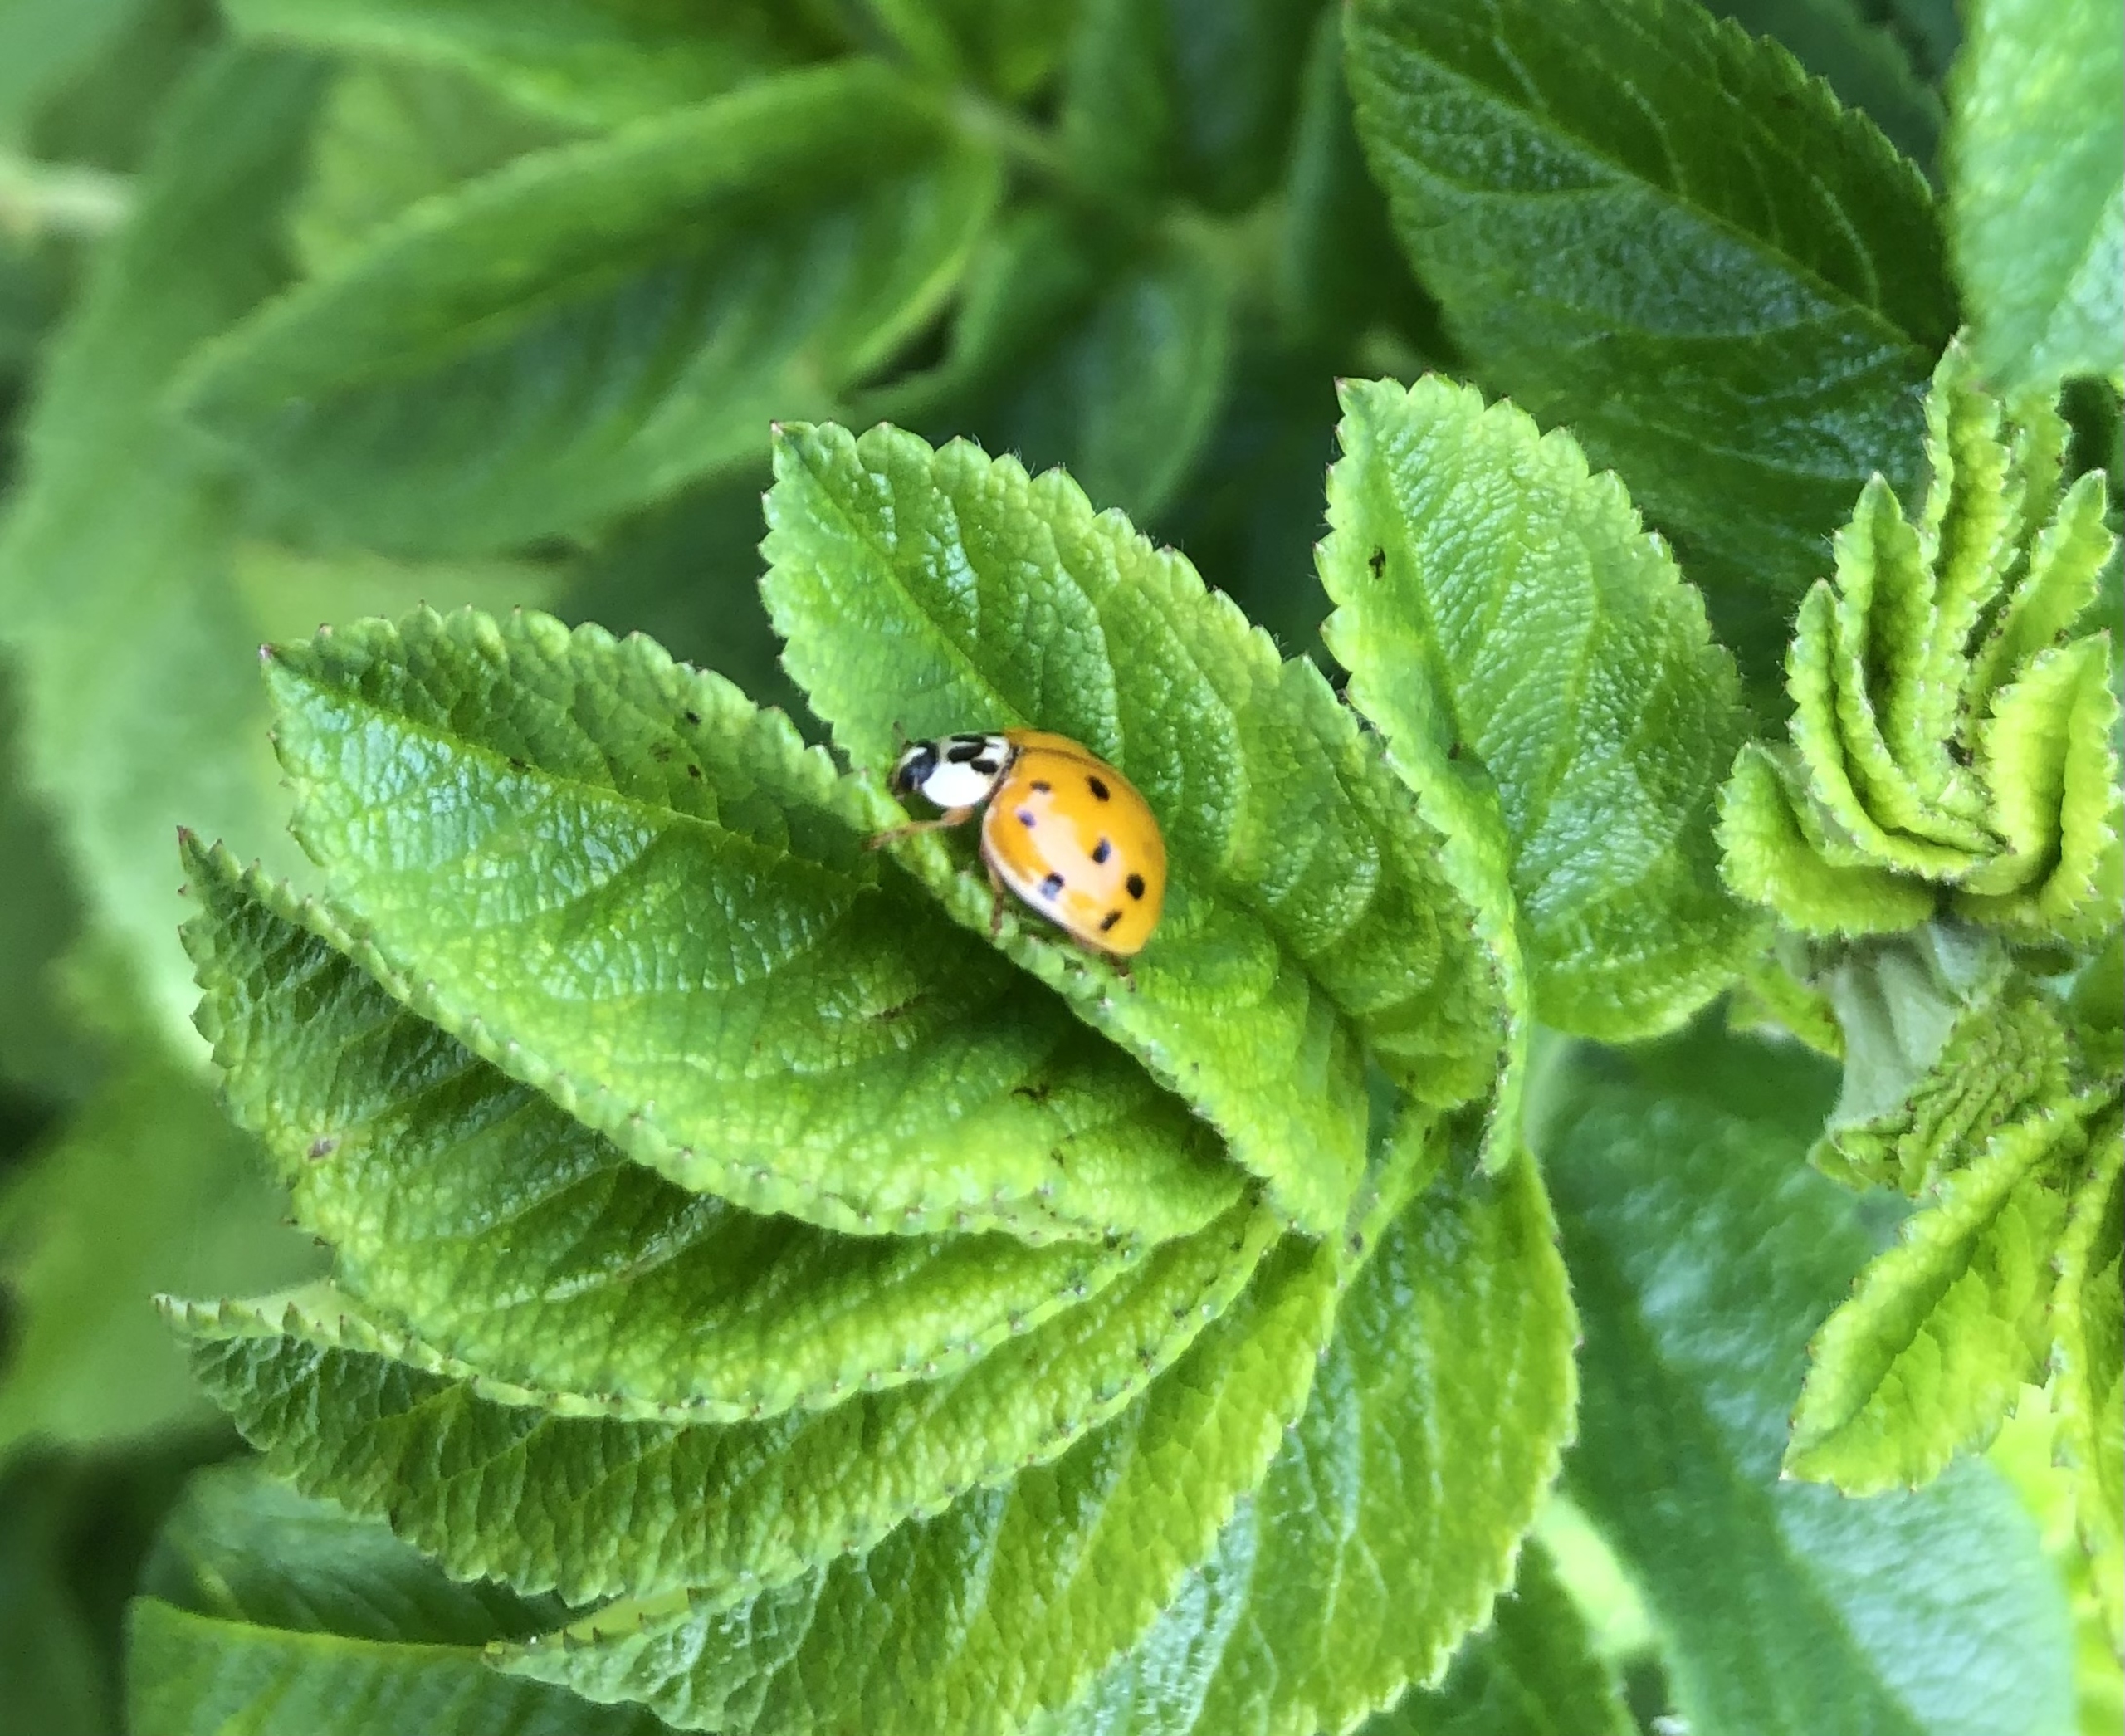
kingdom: Animalia
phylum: Arthropoda
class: Insecta
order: Coleoptera
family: Coccinellidae
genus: Harmonia
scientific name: Harmonia axyridis
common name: Harlekinmariehøne
